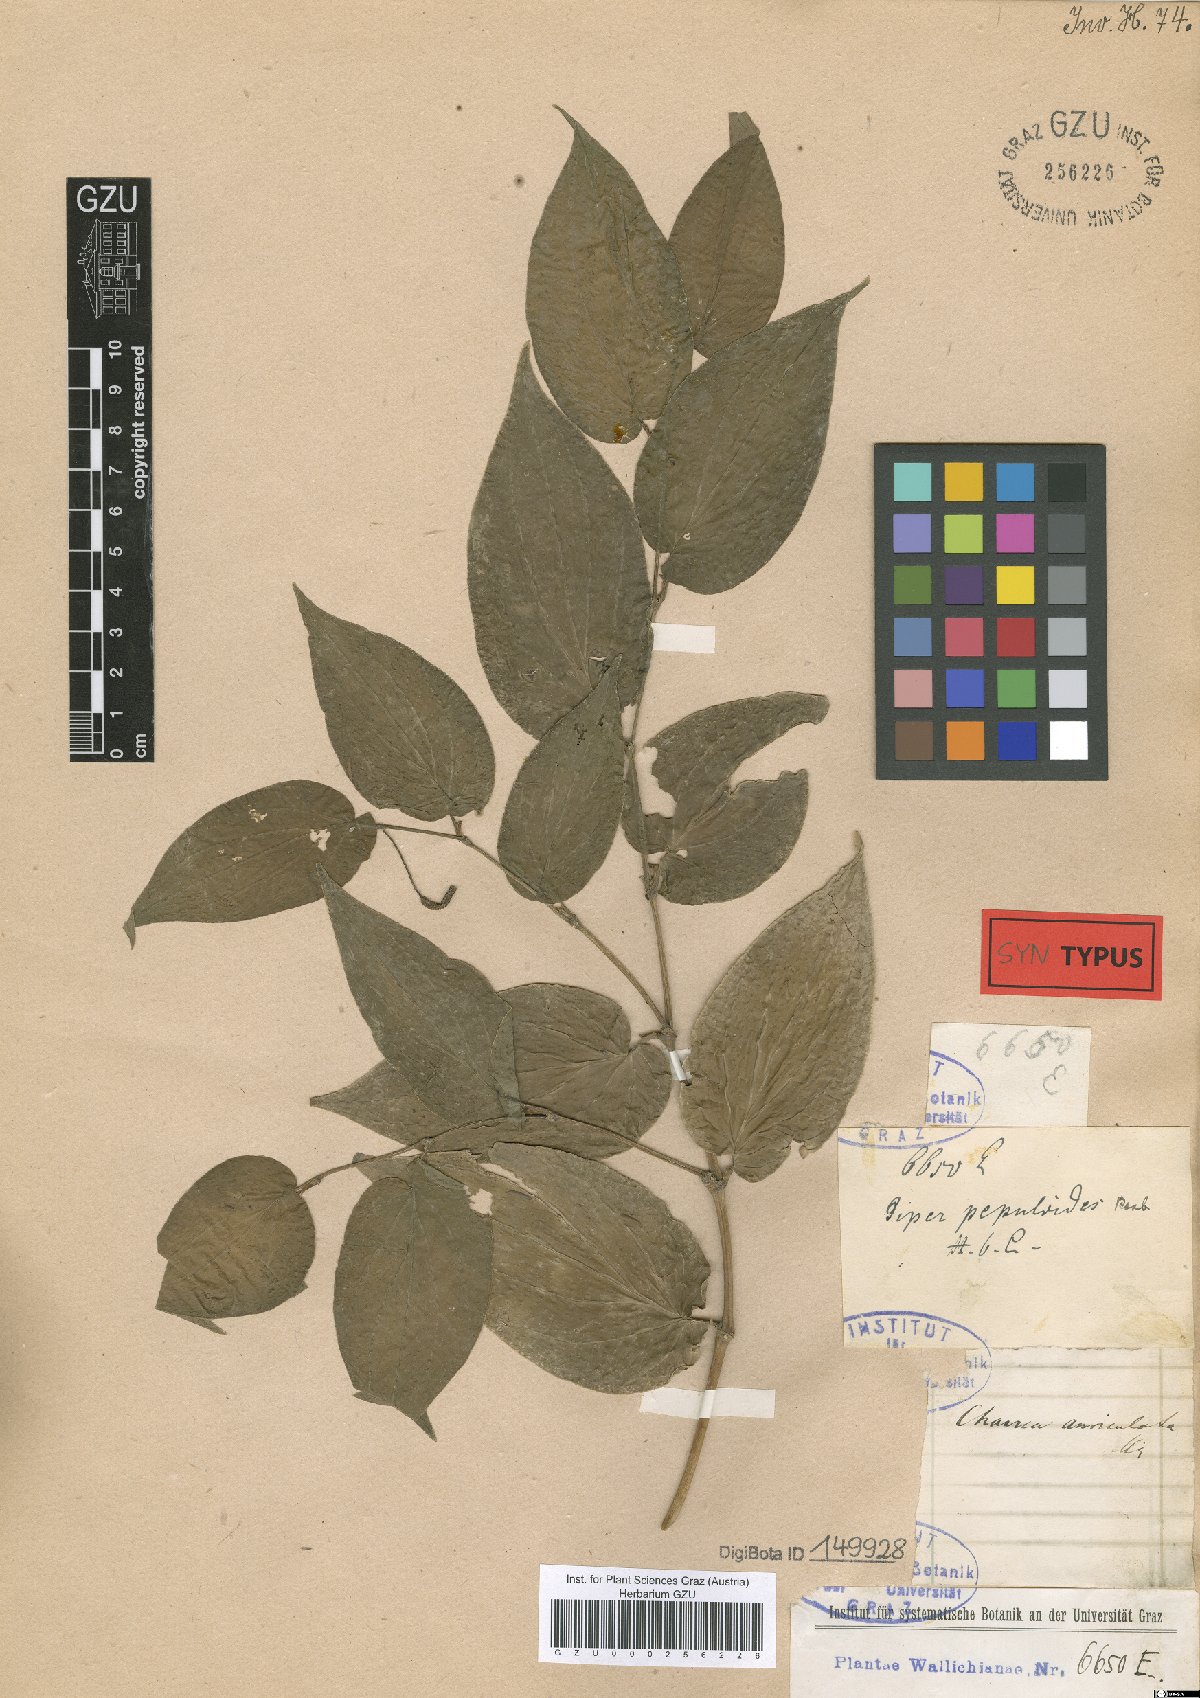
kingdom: Plantae
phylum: Tracheophyta
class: Magnoliopsida
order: Piperales
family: Piperaceae
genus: Piper
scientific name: Piper betle
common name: Betel pepper
